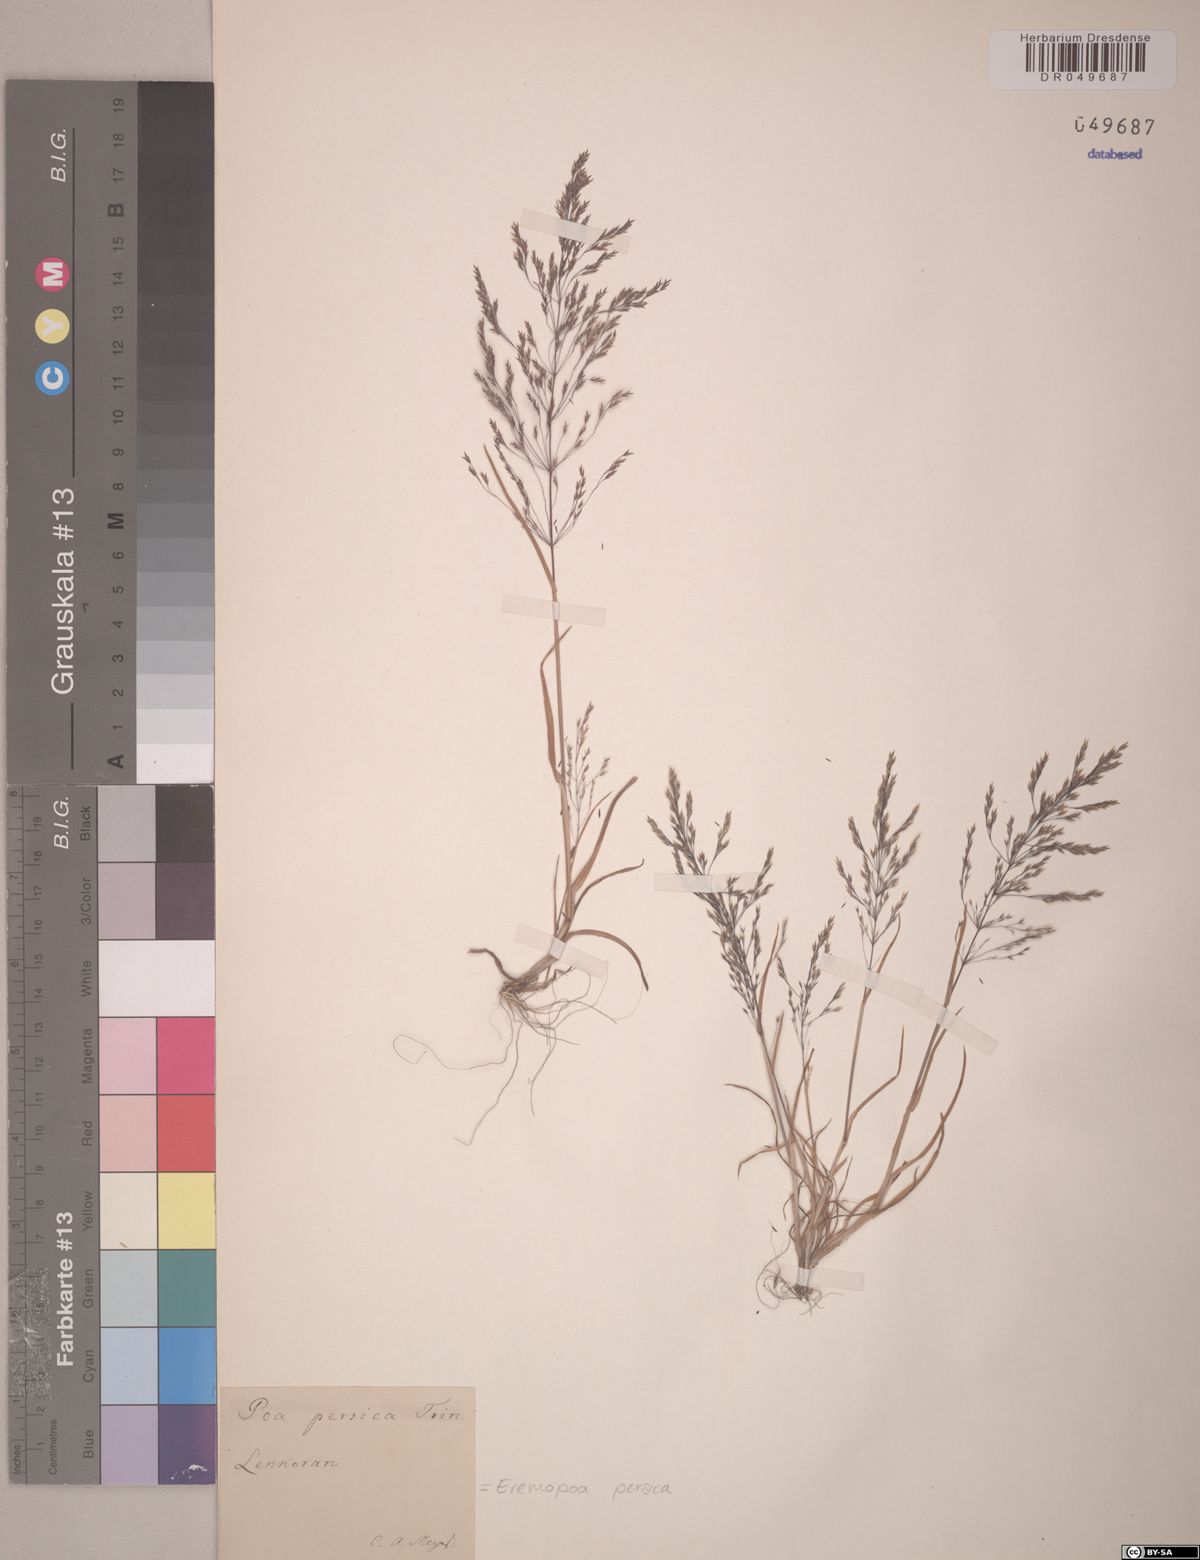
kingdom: Plantae
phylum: Tracheophyta
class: Liliopsida
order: Poales
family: Poaceae
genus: Poa
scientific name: Poa persica
